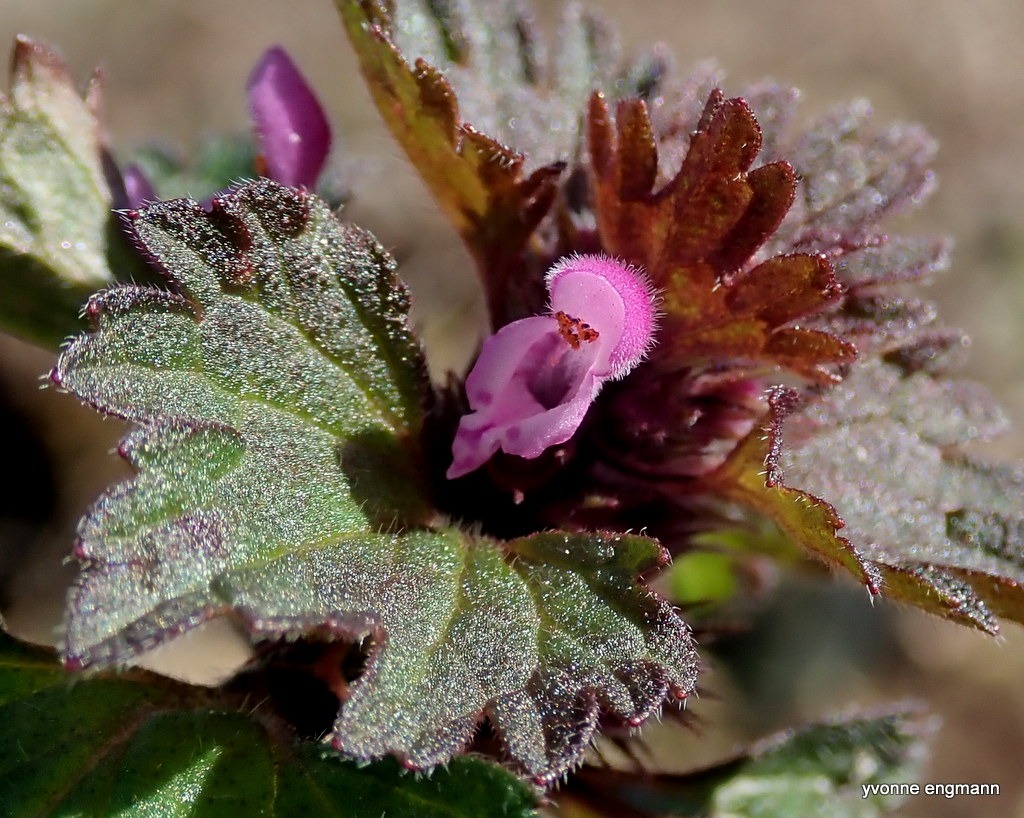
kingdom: Plantae
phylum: Tracheophyta
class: Magnoliopsida
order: Lamiales
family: Lamiaceae
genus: Lamium
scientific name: Lamium hybridum
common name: Fliget tvetand
